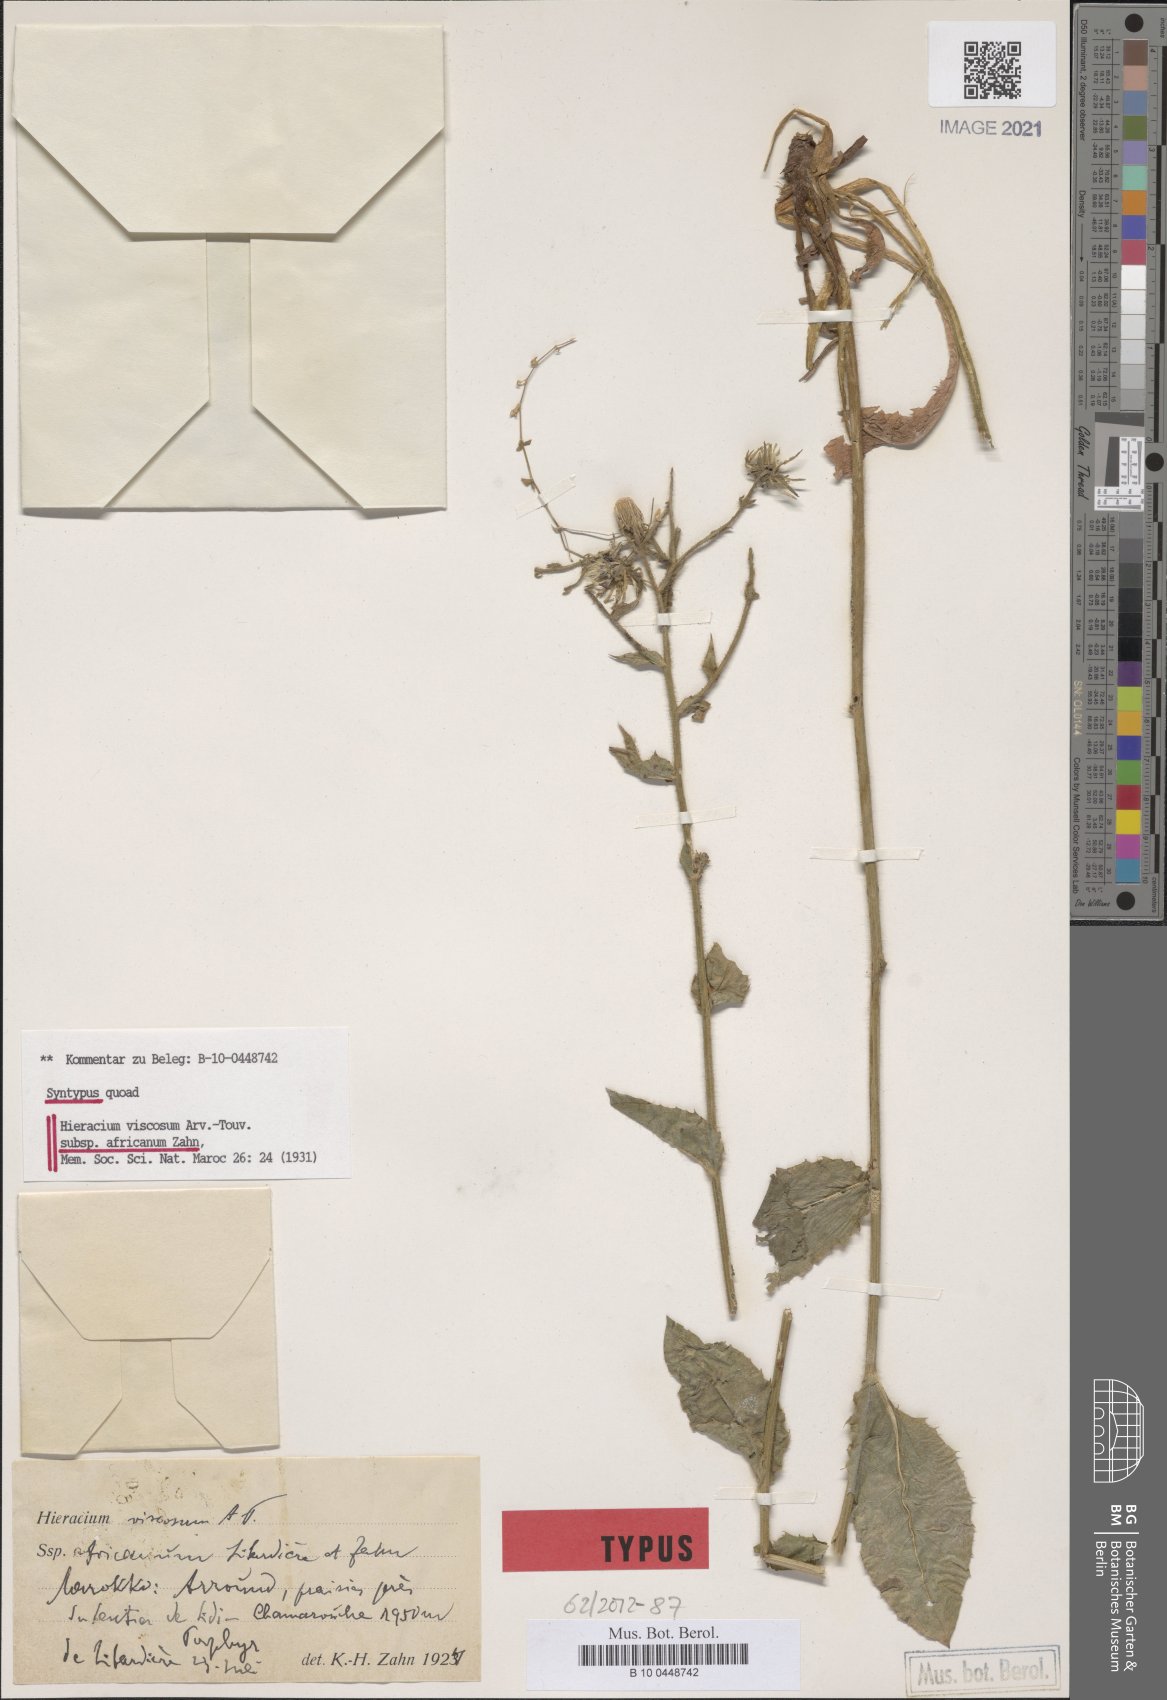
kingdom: Plantae
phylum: Tracheophyta
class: Magnoliopsida
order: Asterales
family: Asteraceae
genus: Hieracium
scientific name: Hieracium viscosum
